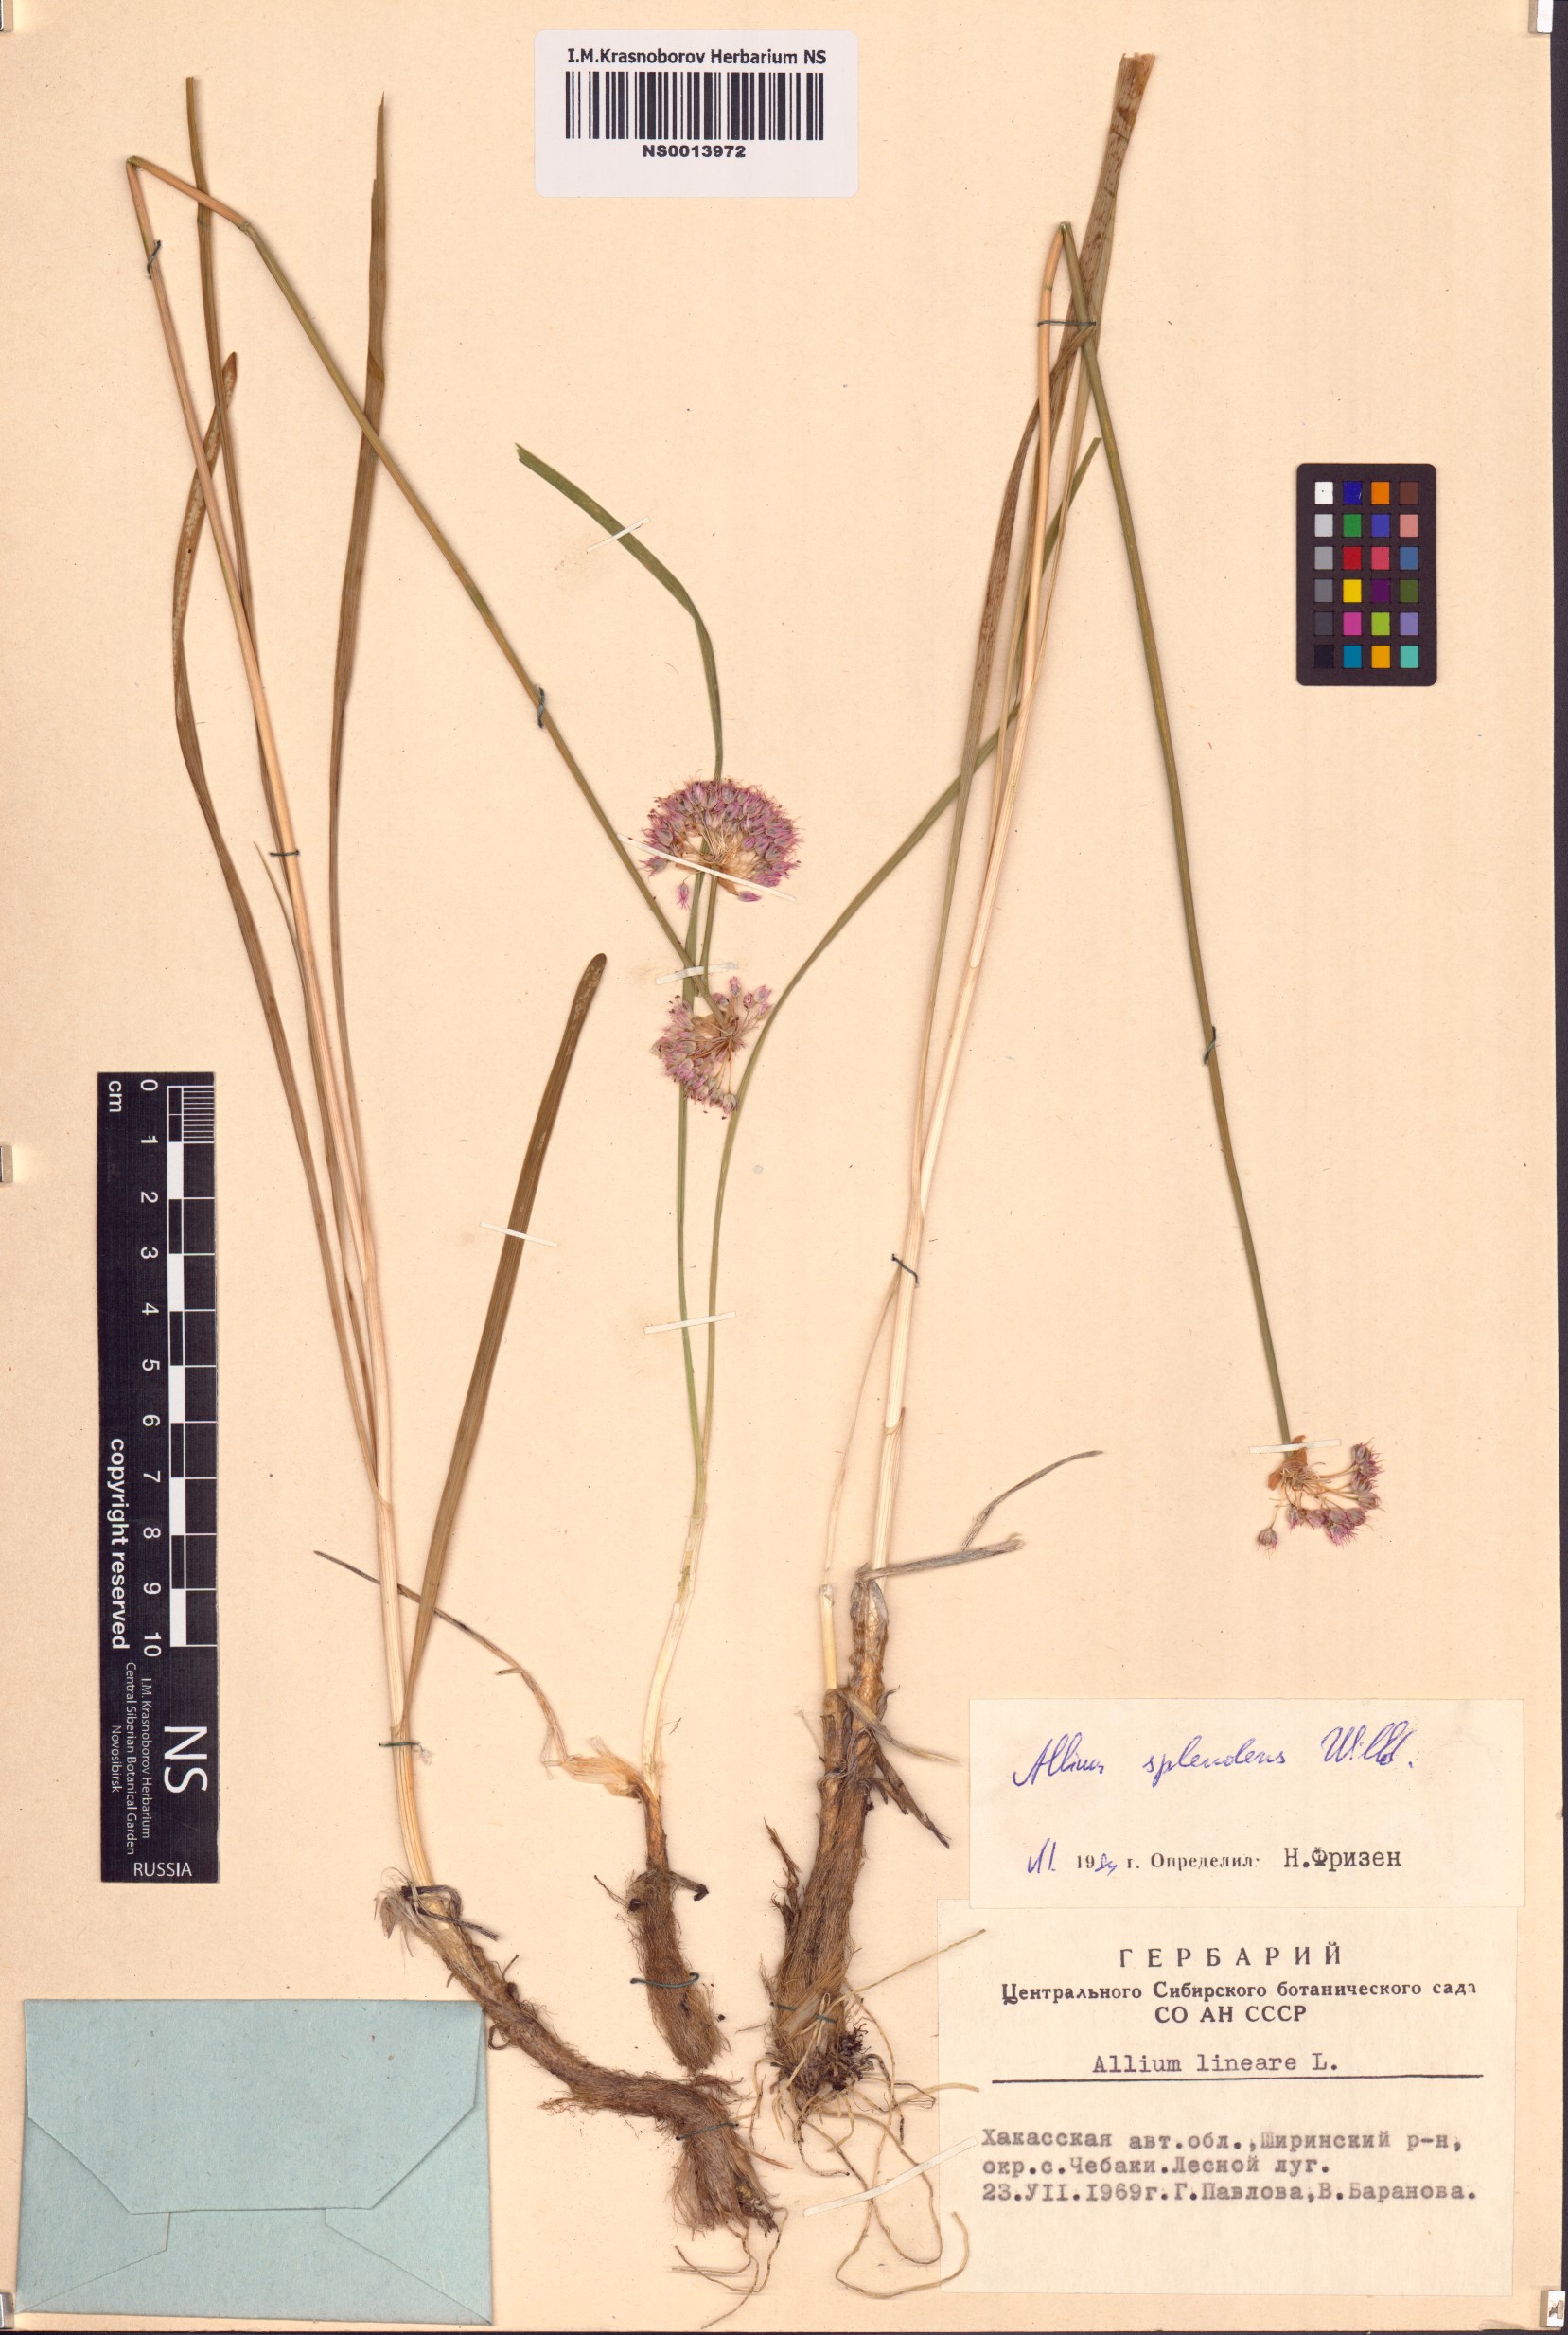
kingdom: Plantae
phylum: Tracheophyta
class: Liliopsida
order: Asparagales
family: Amaryllidaceae
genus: Allium
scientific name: Allium splendens
